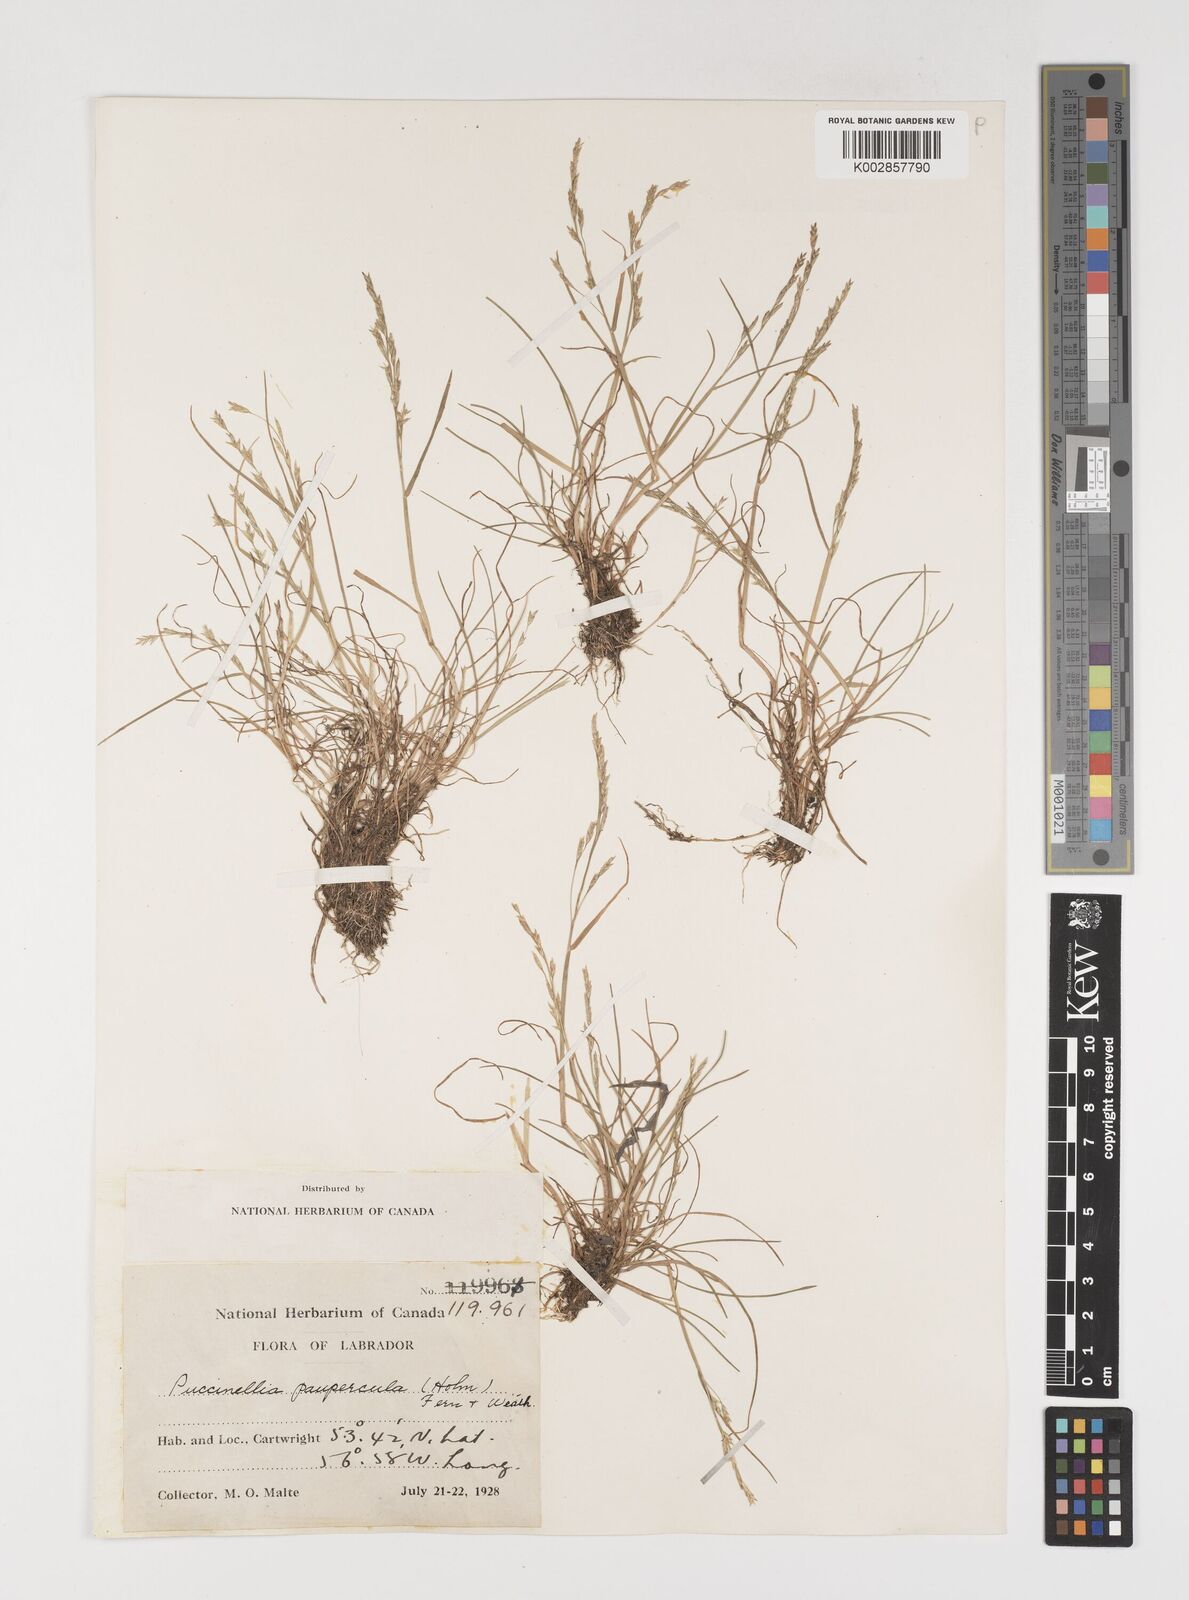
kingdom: Plantae
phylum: Tracheophyta
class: Liliopsida
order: Poales
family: Poaceae
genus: Puccinellia
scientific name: Puccinellia pumila
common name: Dwarf alkaligrass
